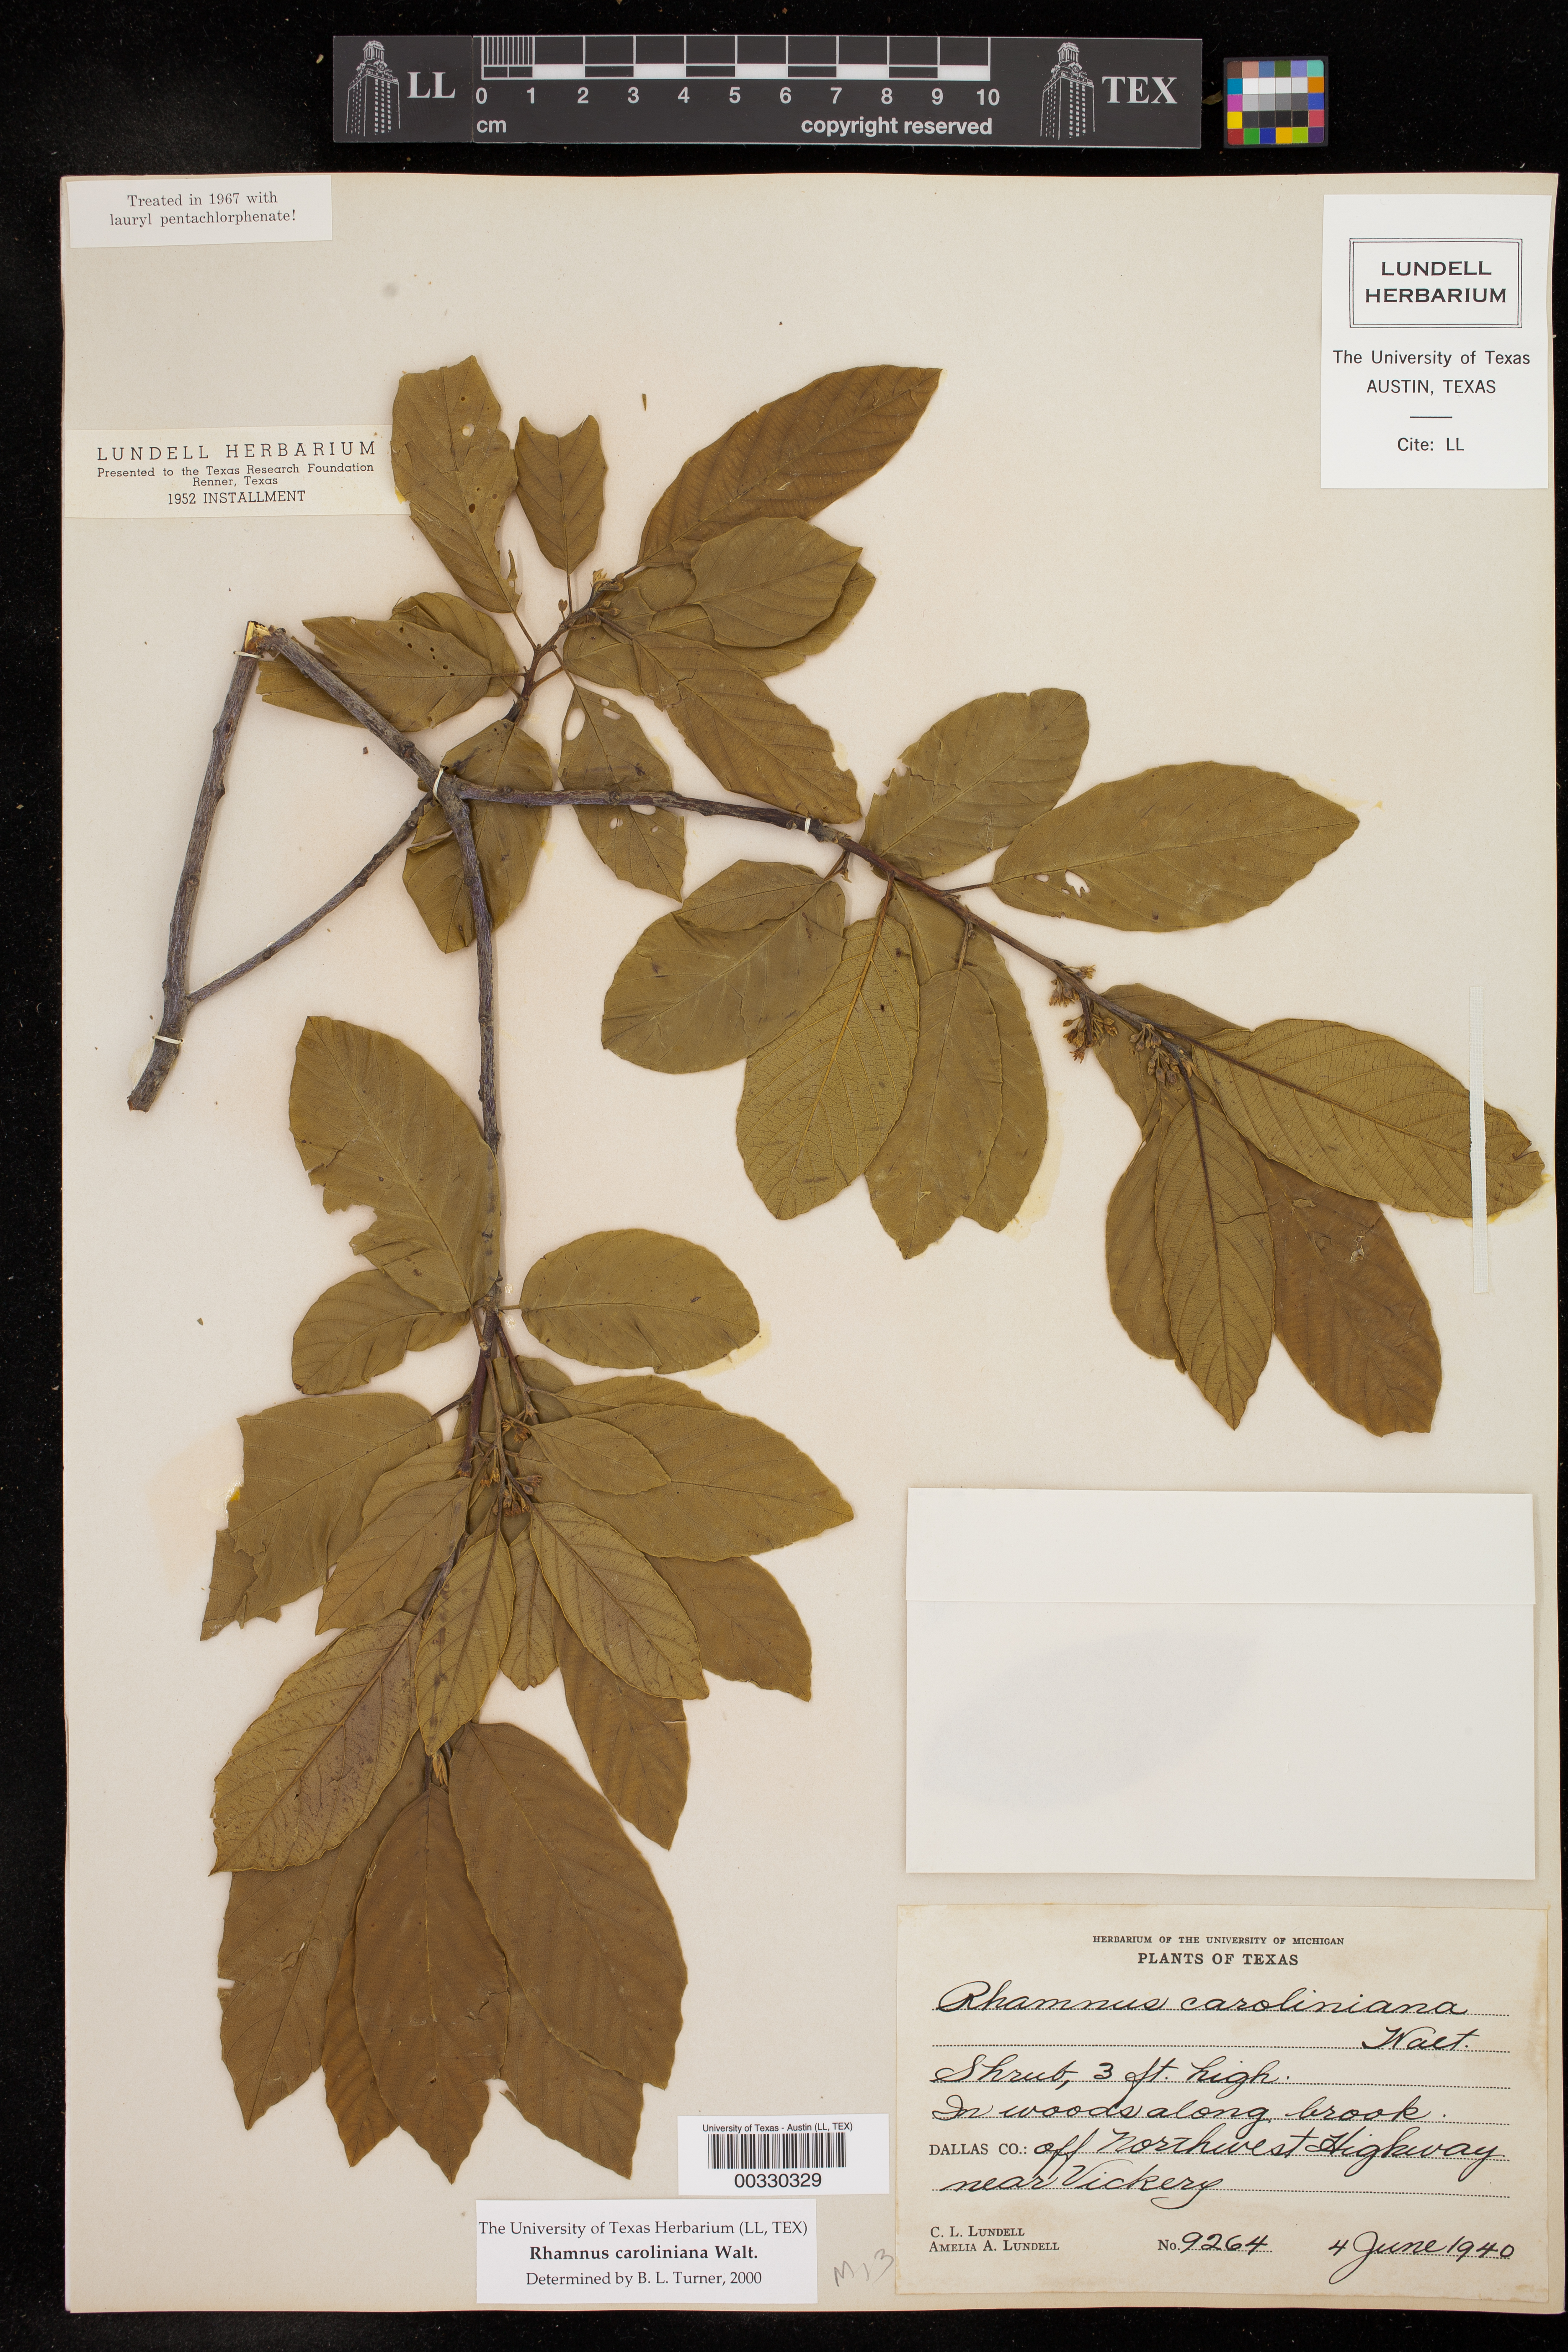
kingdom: Plantae
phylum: Tracheophyta
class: Magnoliopsida
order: Rosales
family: Rhamnaceae
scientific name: Rhamnaceae
